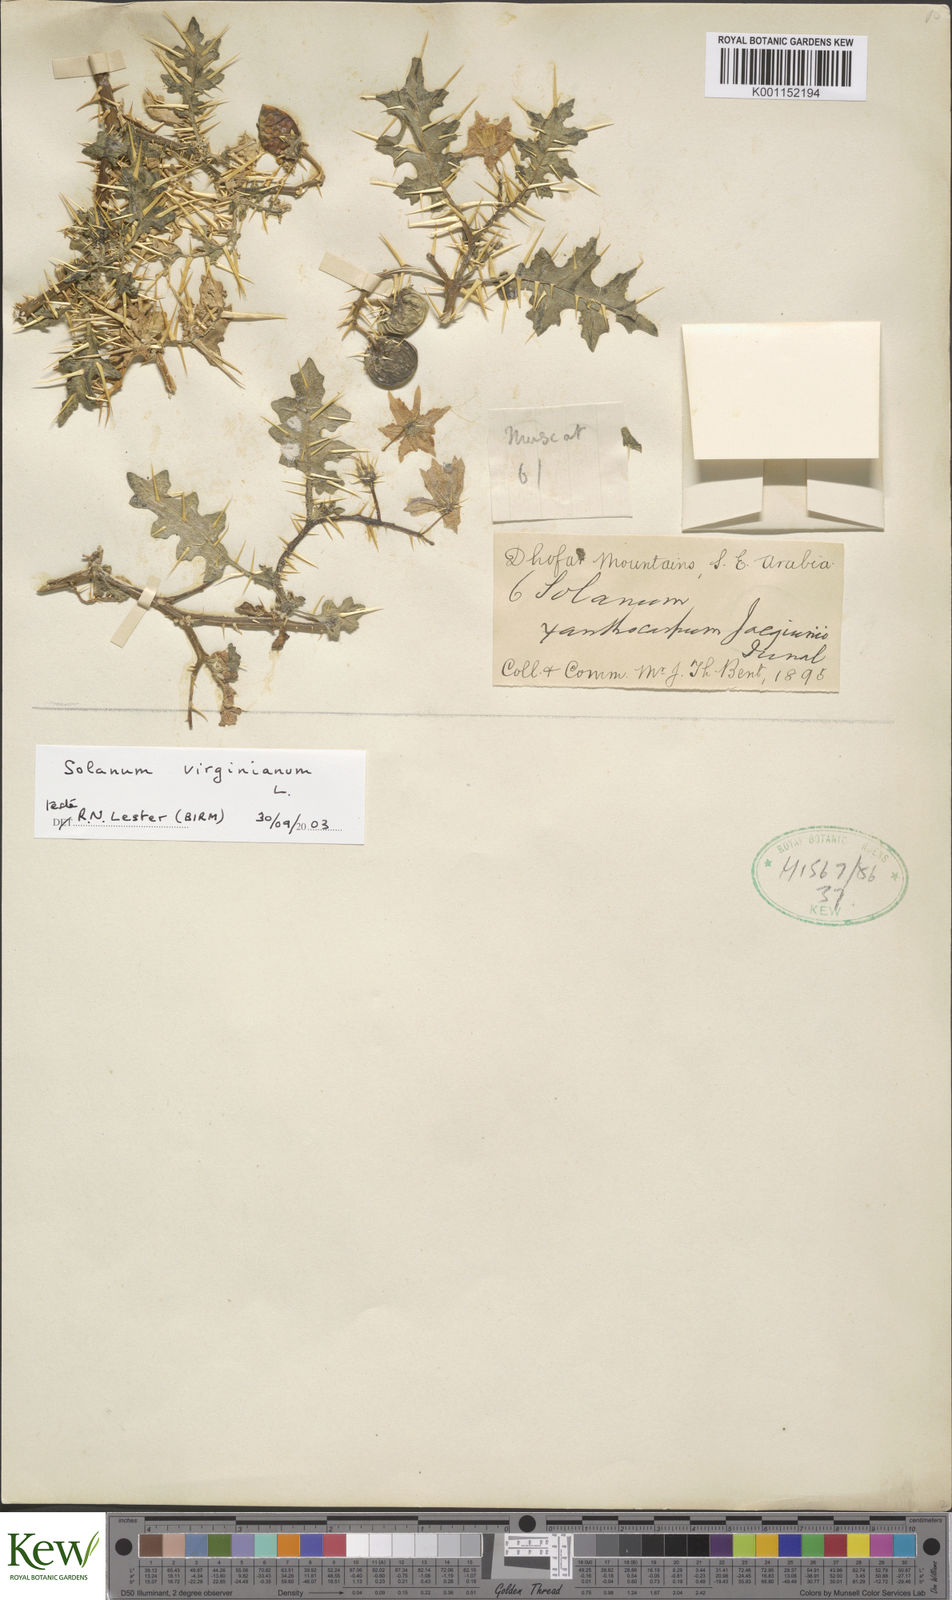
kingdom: Plantae
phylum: Tracheophyta
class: Magnoliopsida
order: Solanales
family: Solanaceae
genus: Solanum
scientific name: Solanum virginianum
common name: Surattense nightshade
